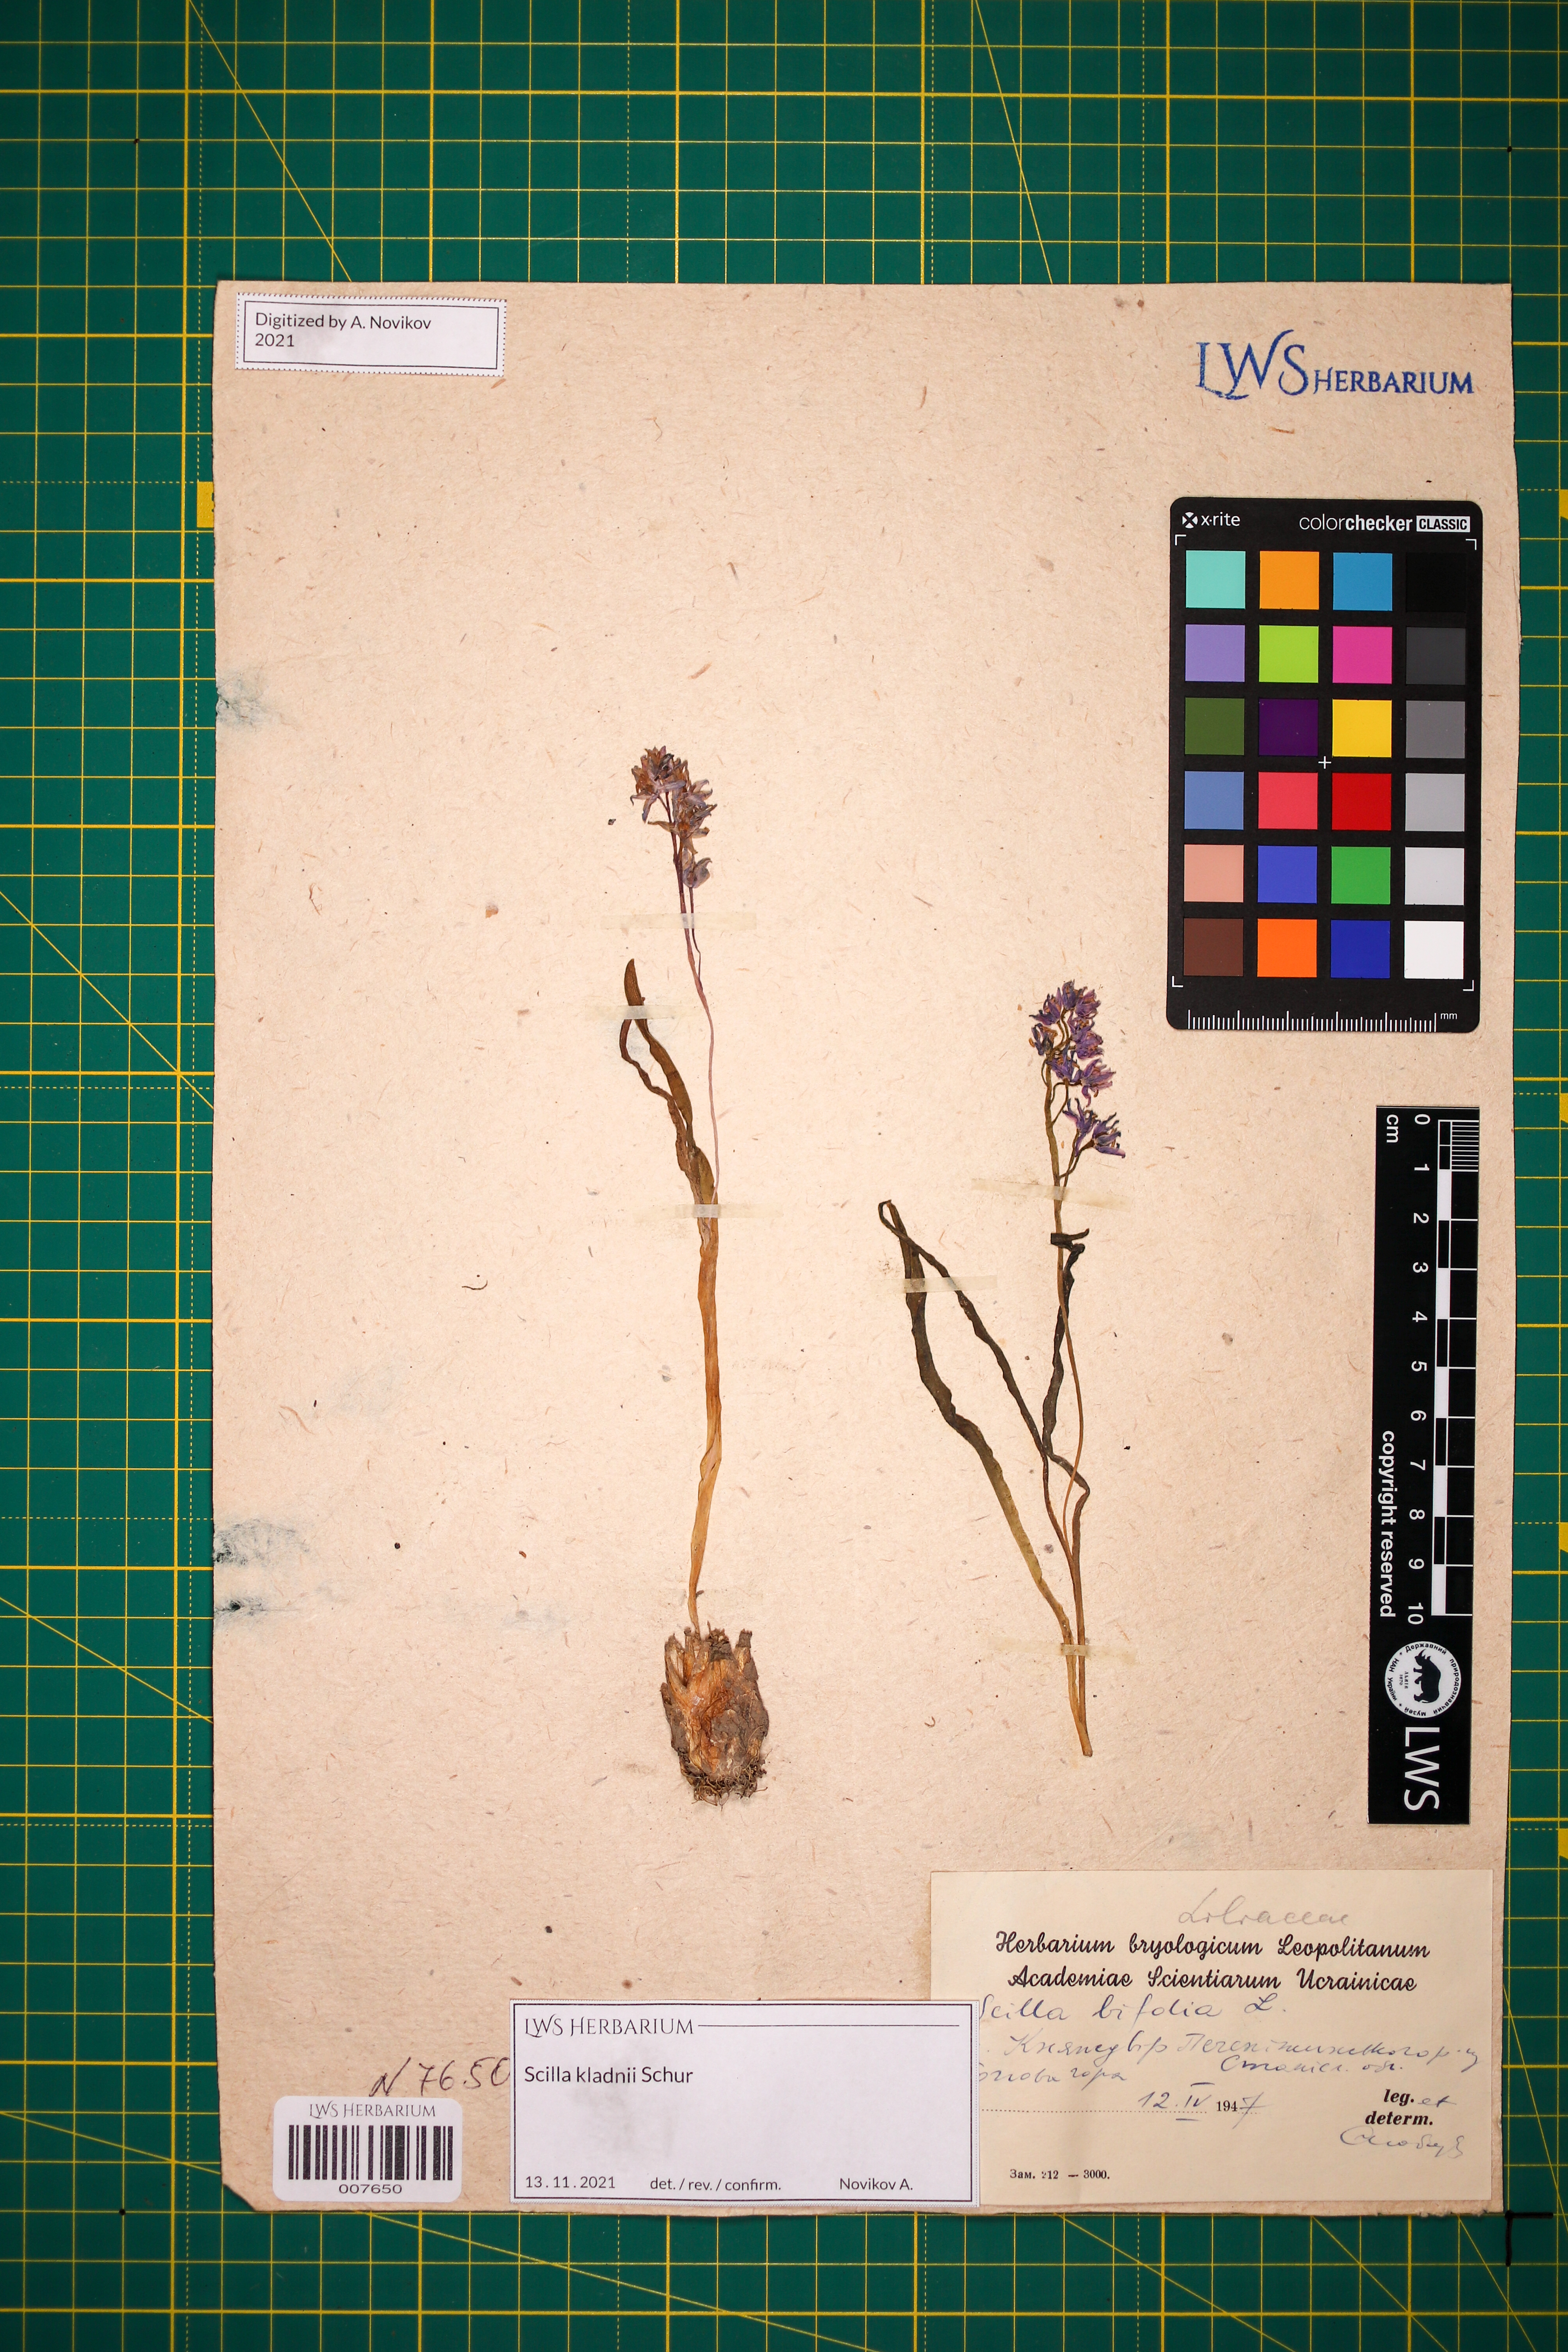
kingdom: Plantae
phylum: Tracheophyta
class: Liliopsida
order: Asparagales
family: Asparagaceae
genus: Scilla
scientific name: Scilla kladnii
